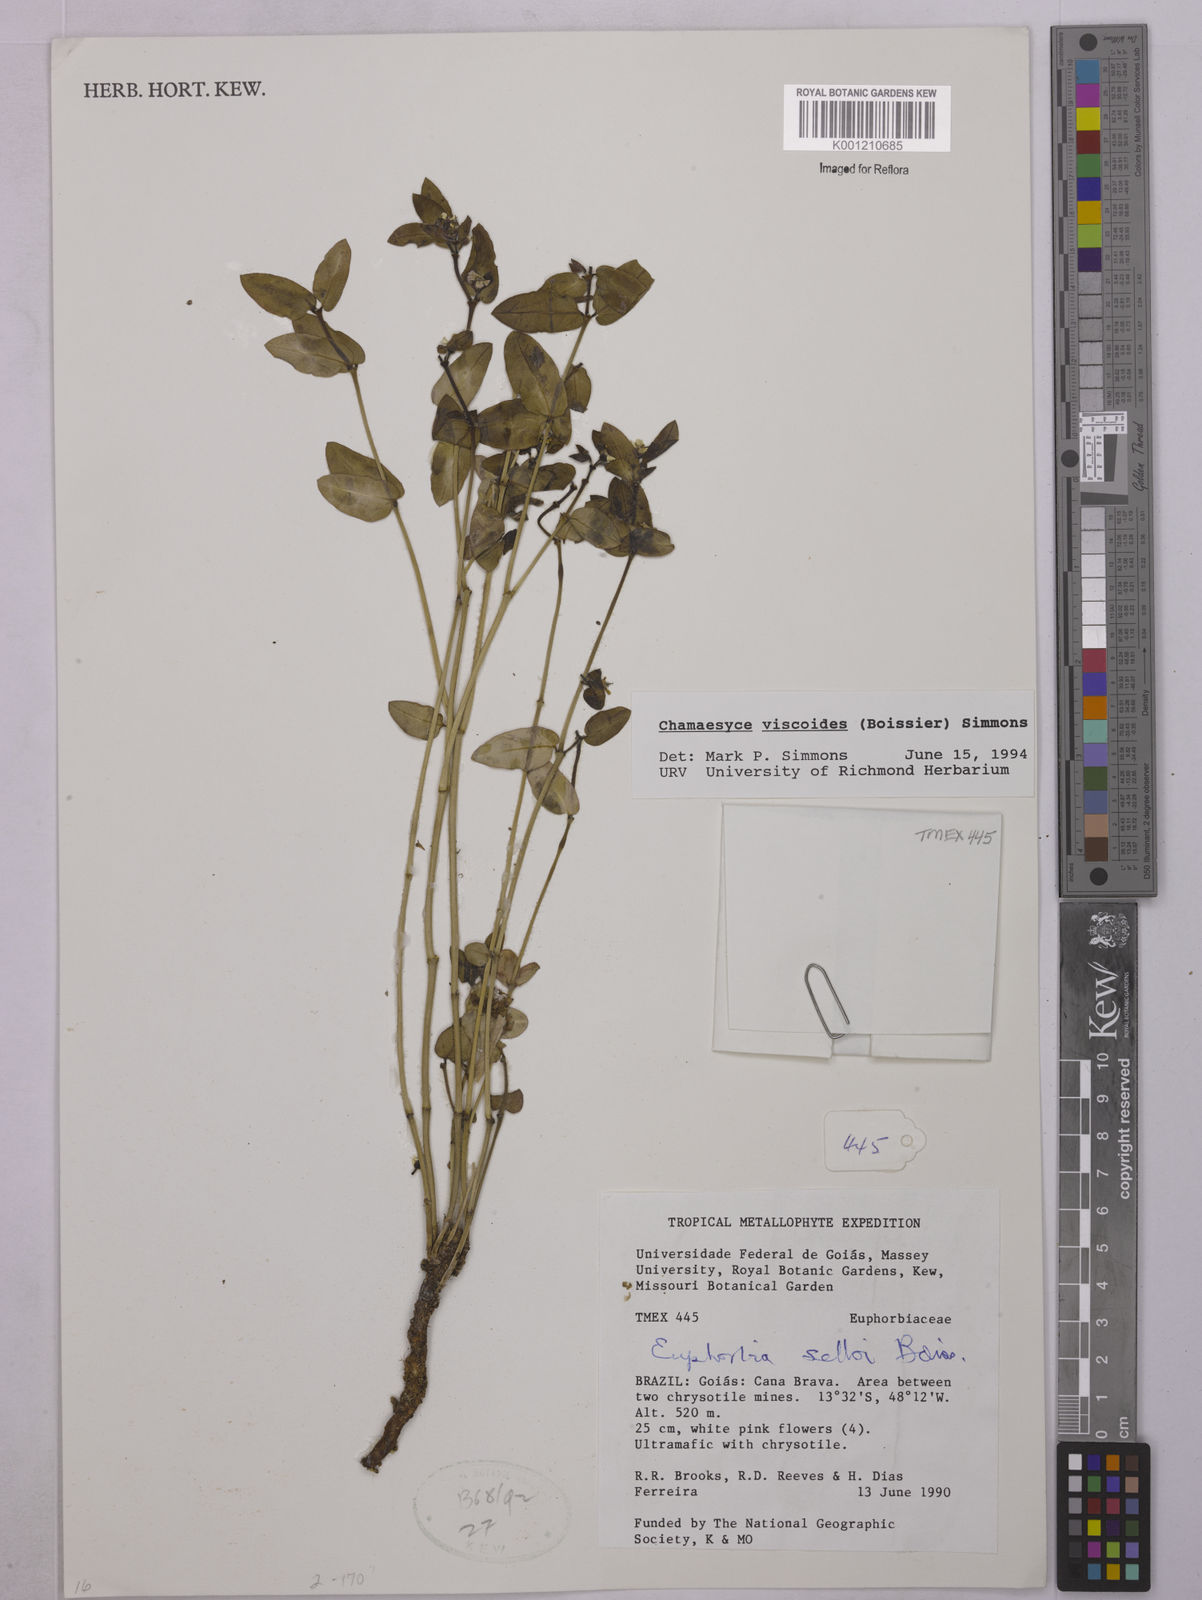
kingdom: Plantae
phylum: Tracheophyta
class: Magnoliopsida
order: Malpighiales
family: Euphorbiaceae
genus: Euphorbia
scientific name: Euphorbia viscoides
